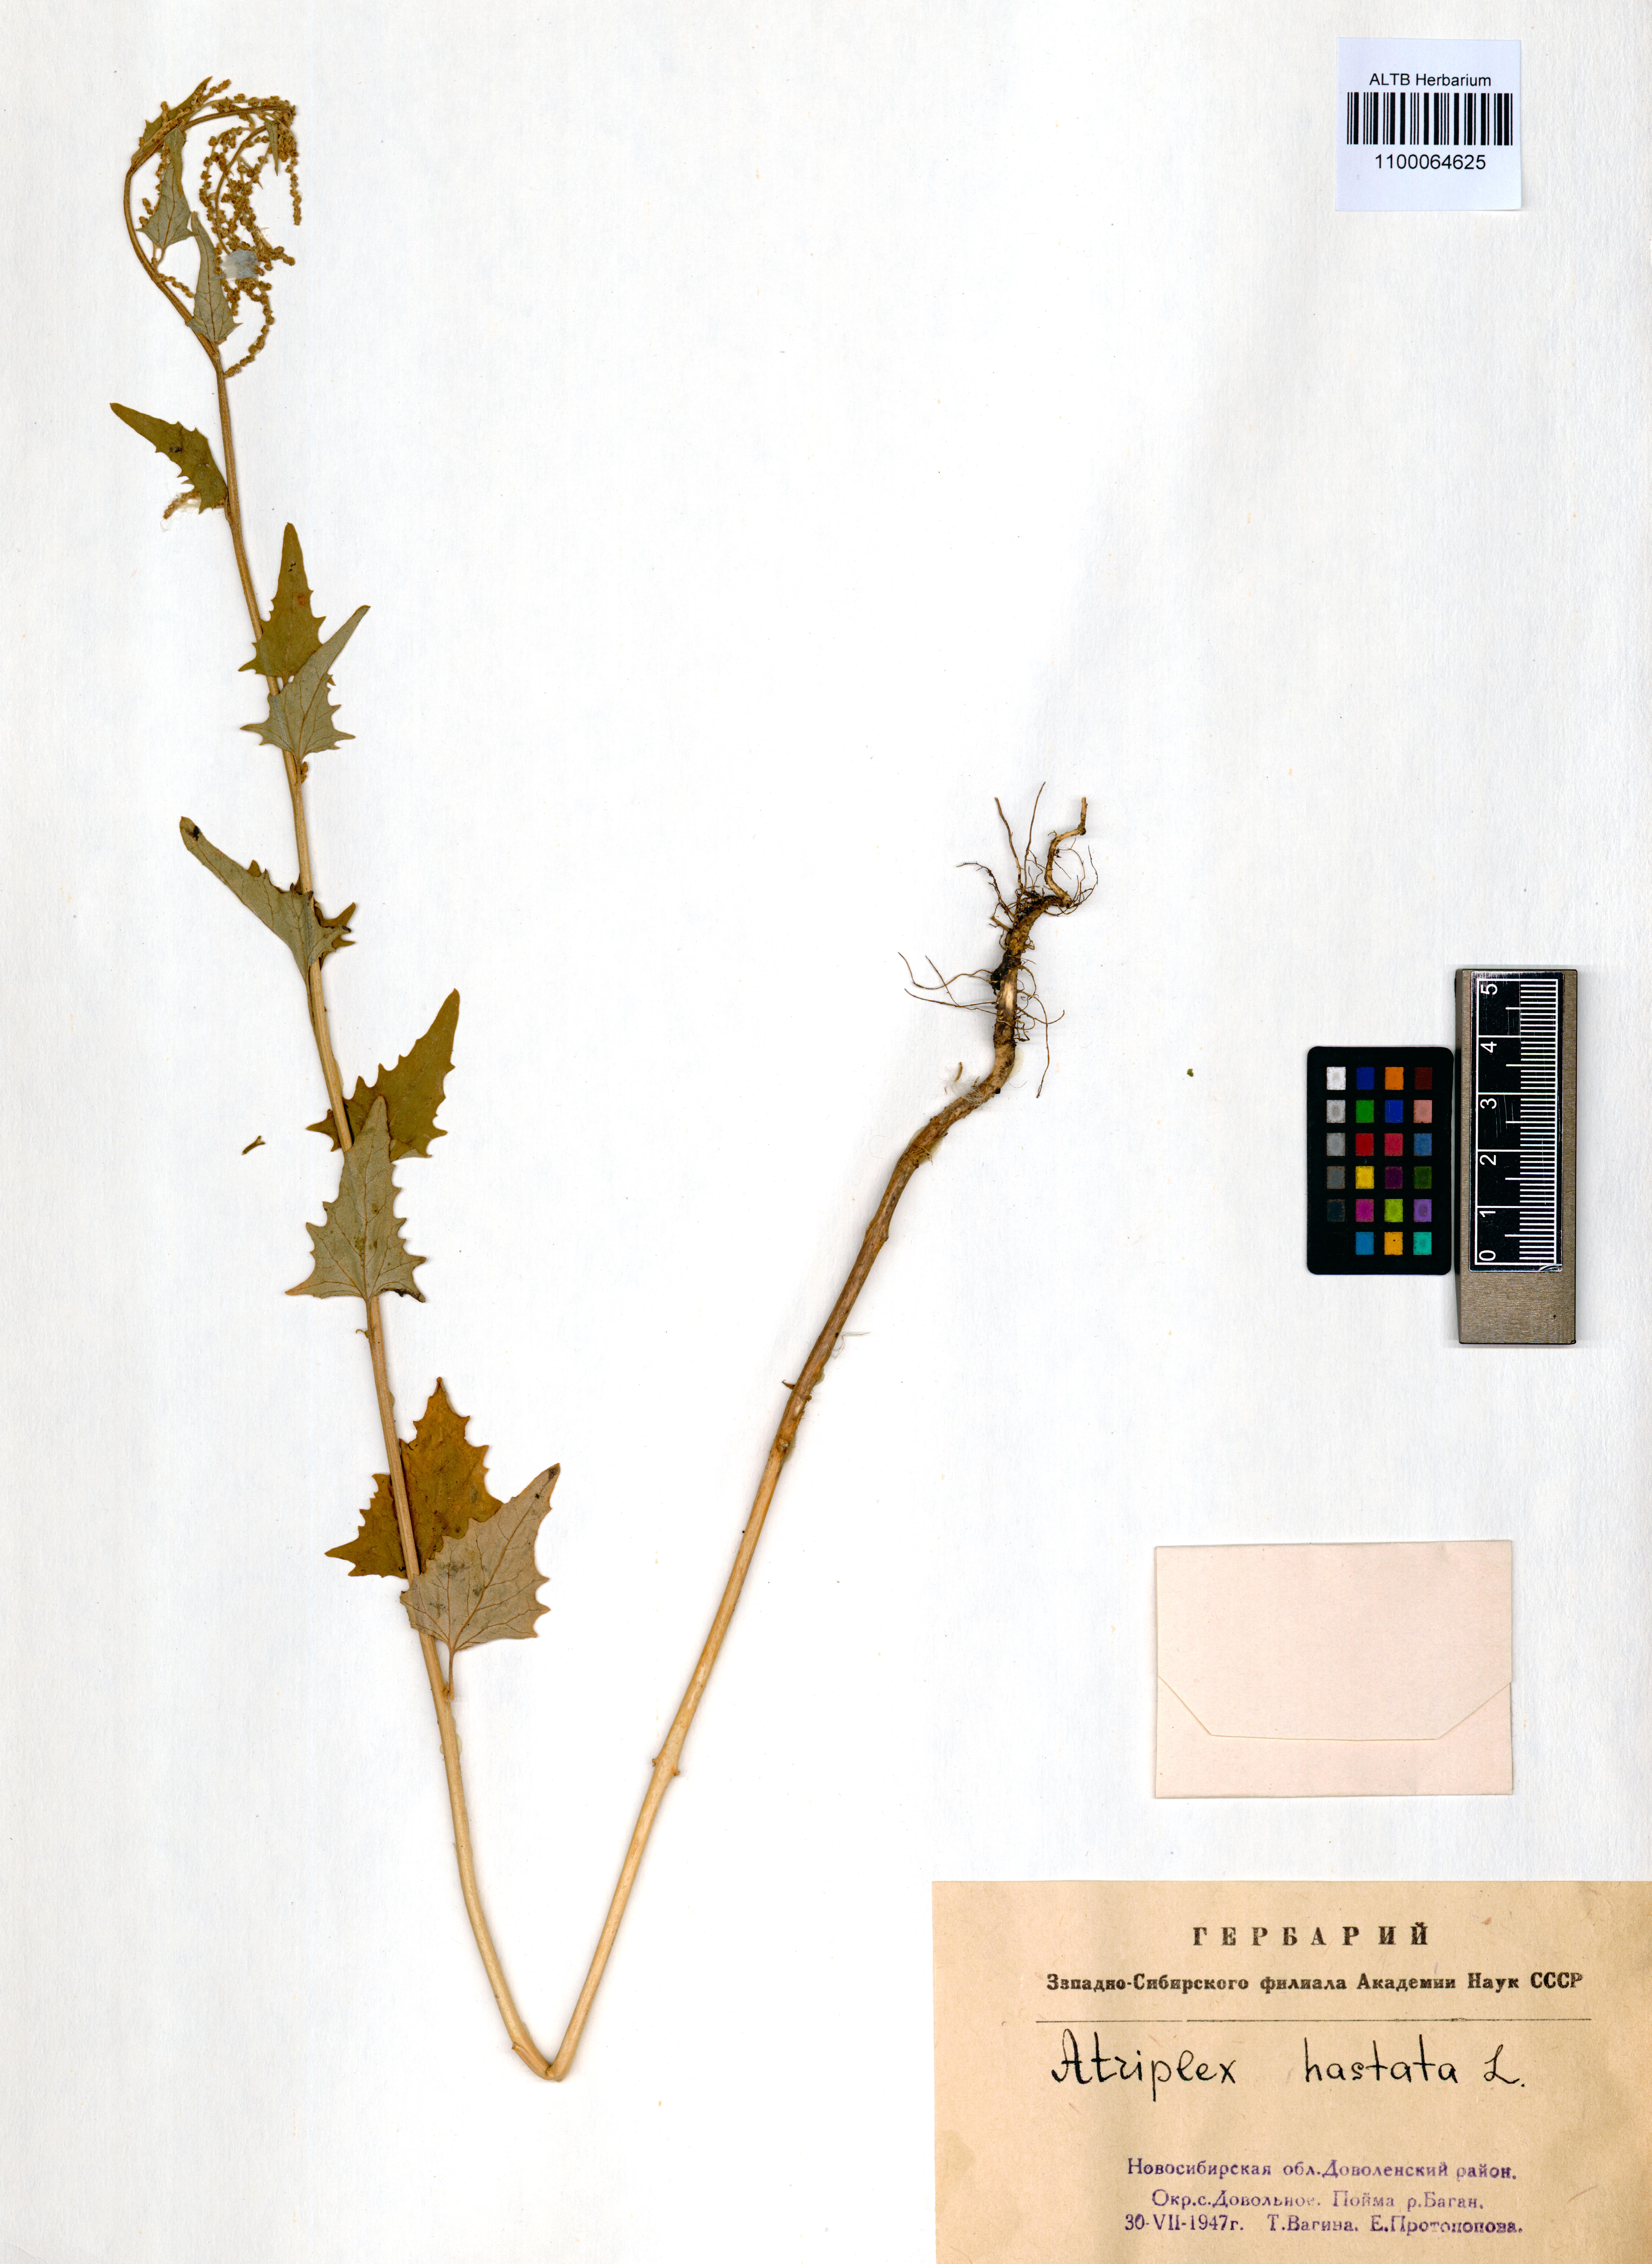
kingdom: Plantae
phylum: Tracheophyta
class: Magnoliopsida
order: Caryophyllales
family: Amaranthaceae
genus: Atriplex
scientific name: Atriplex calotheca
